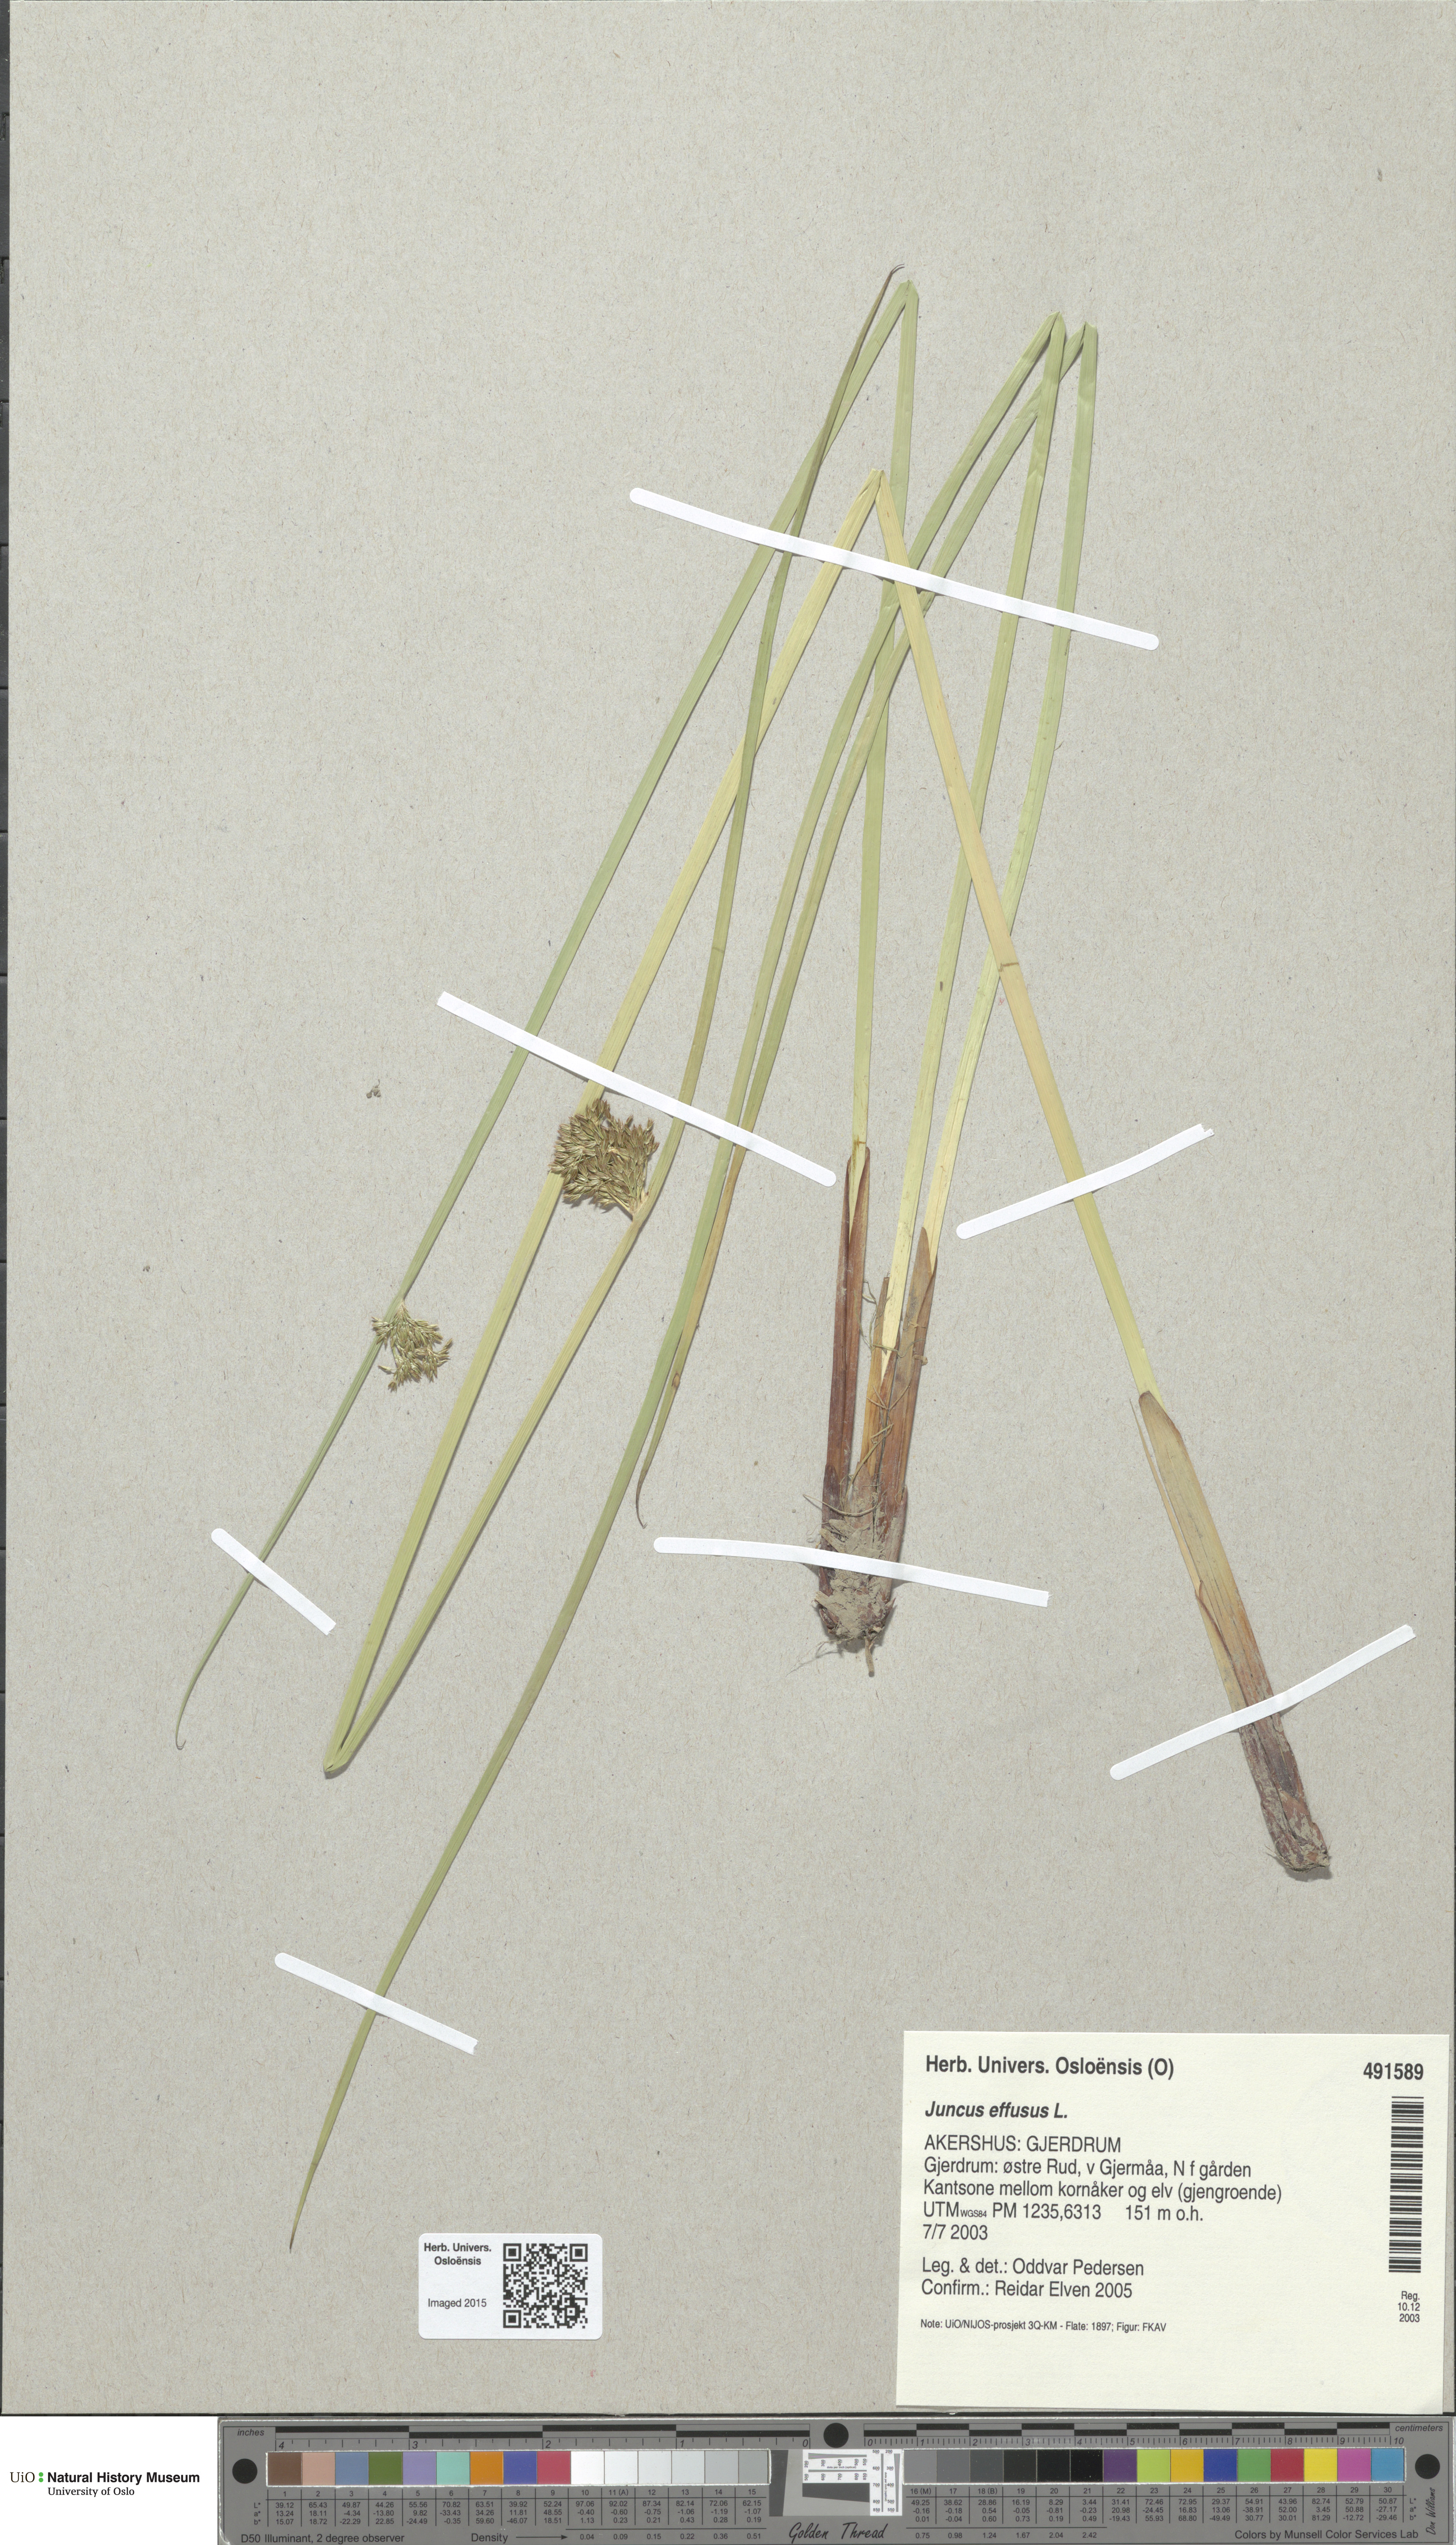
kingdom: Plantae
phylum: Tracheophyta
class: Liliopsida
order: Poales
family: Juncaceae
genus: Juncus
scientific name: Juncus effusus
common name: Soft rush
